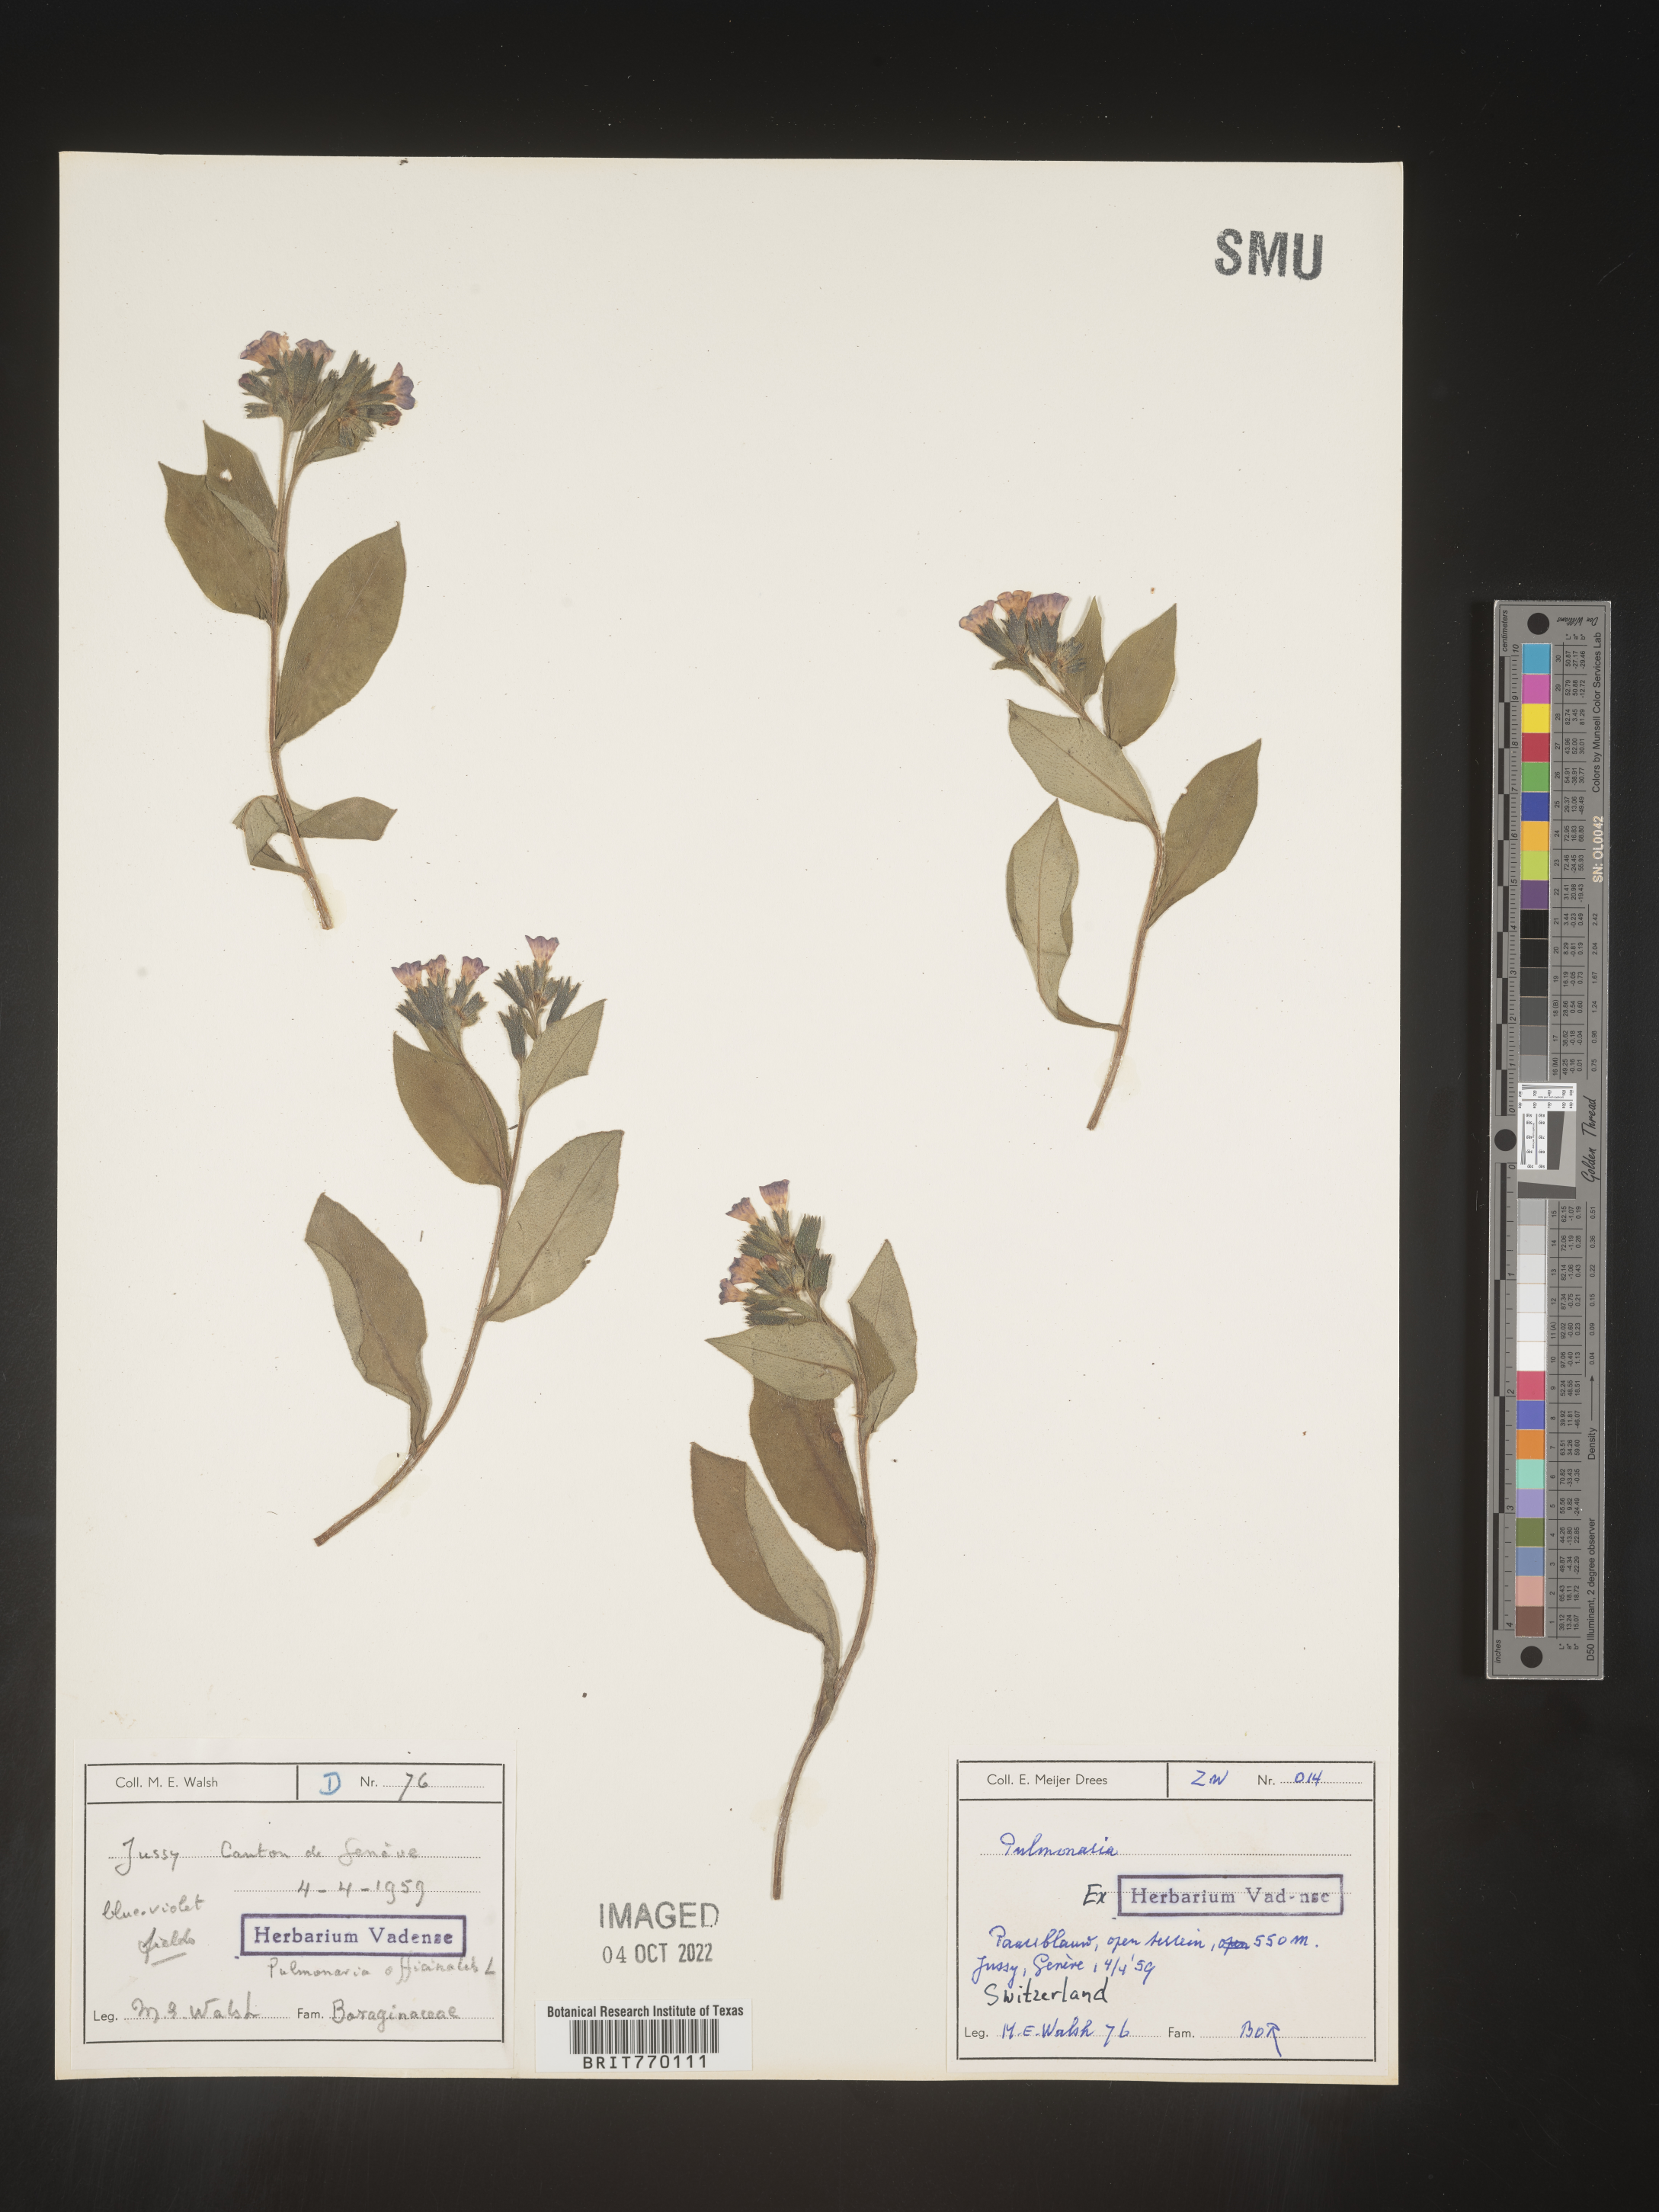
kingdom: Plantae
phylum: Tracheophyta
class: Magnoliopsida
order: Boraginales
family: Boraginaceae
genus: Pulmonaria
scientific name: Pulmonaria
